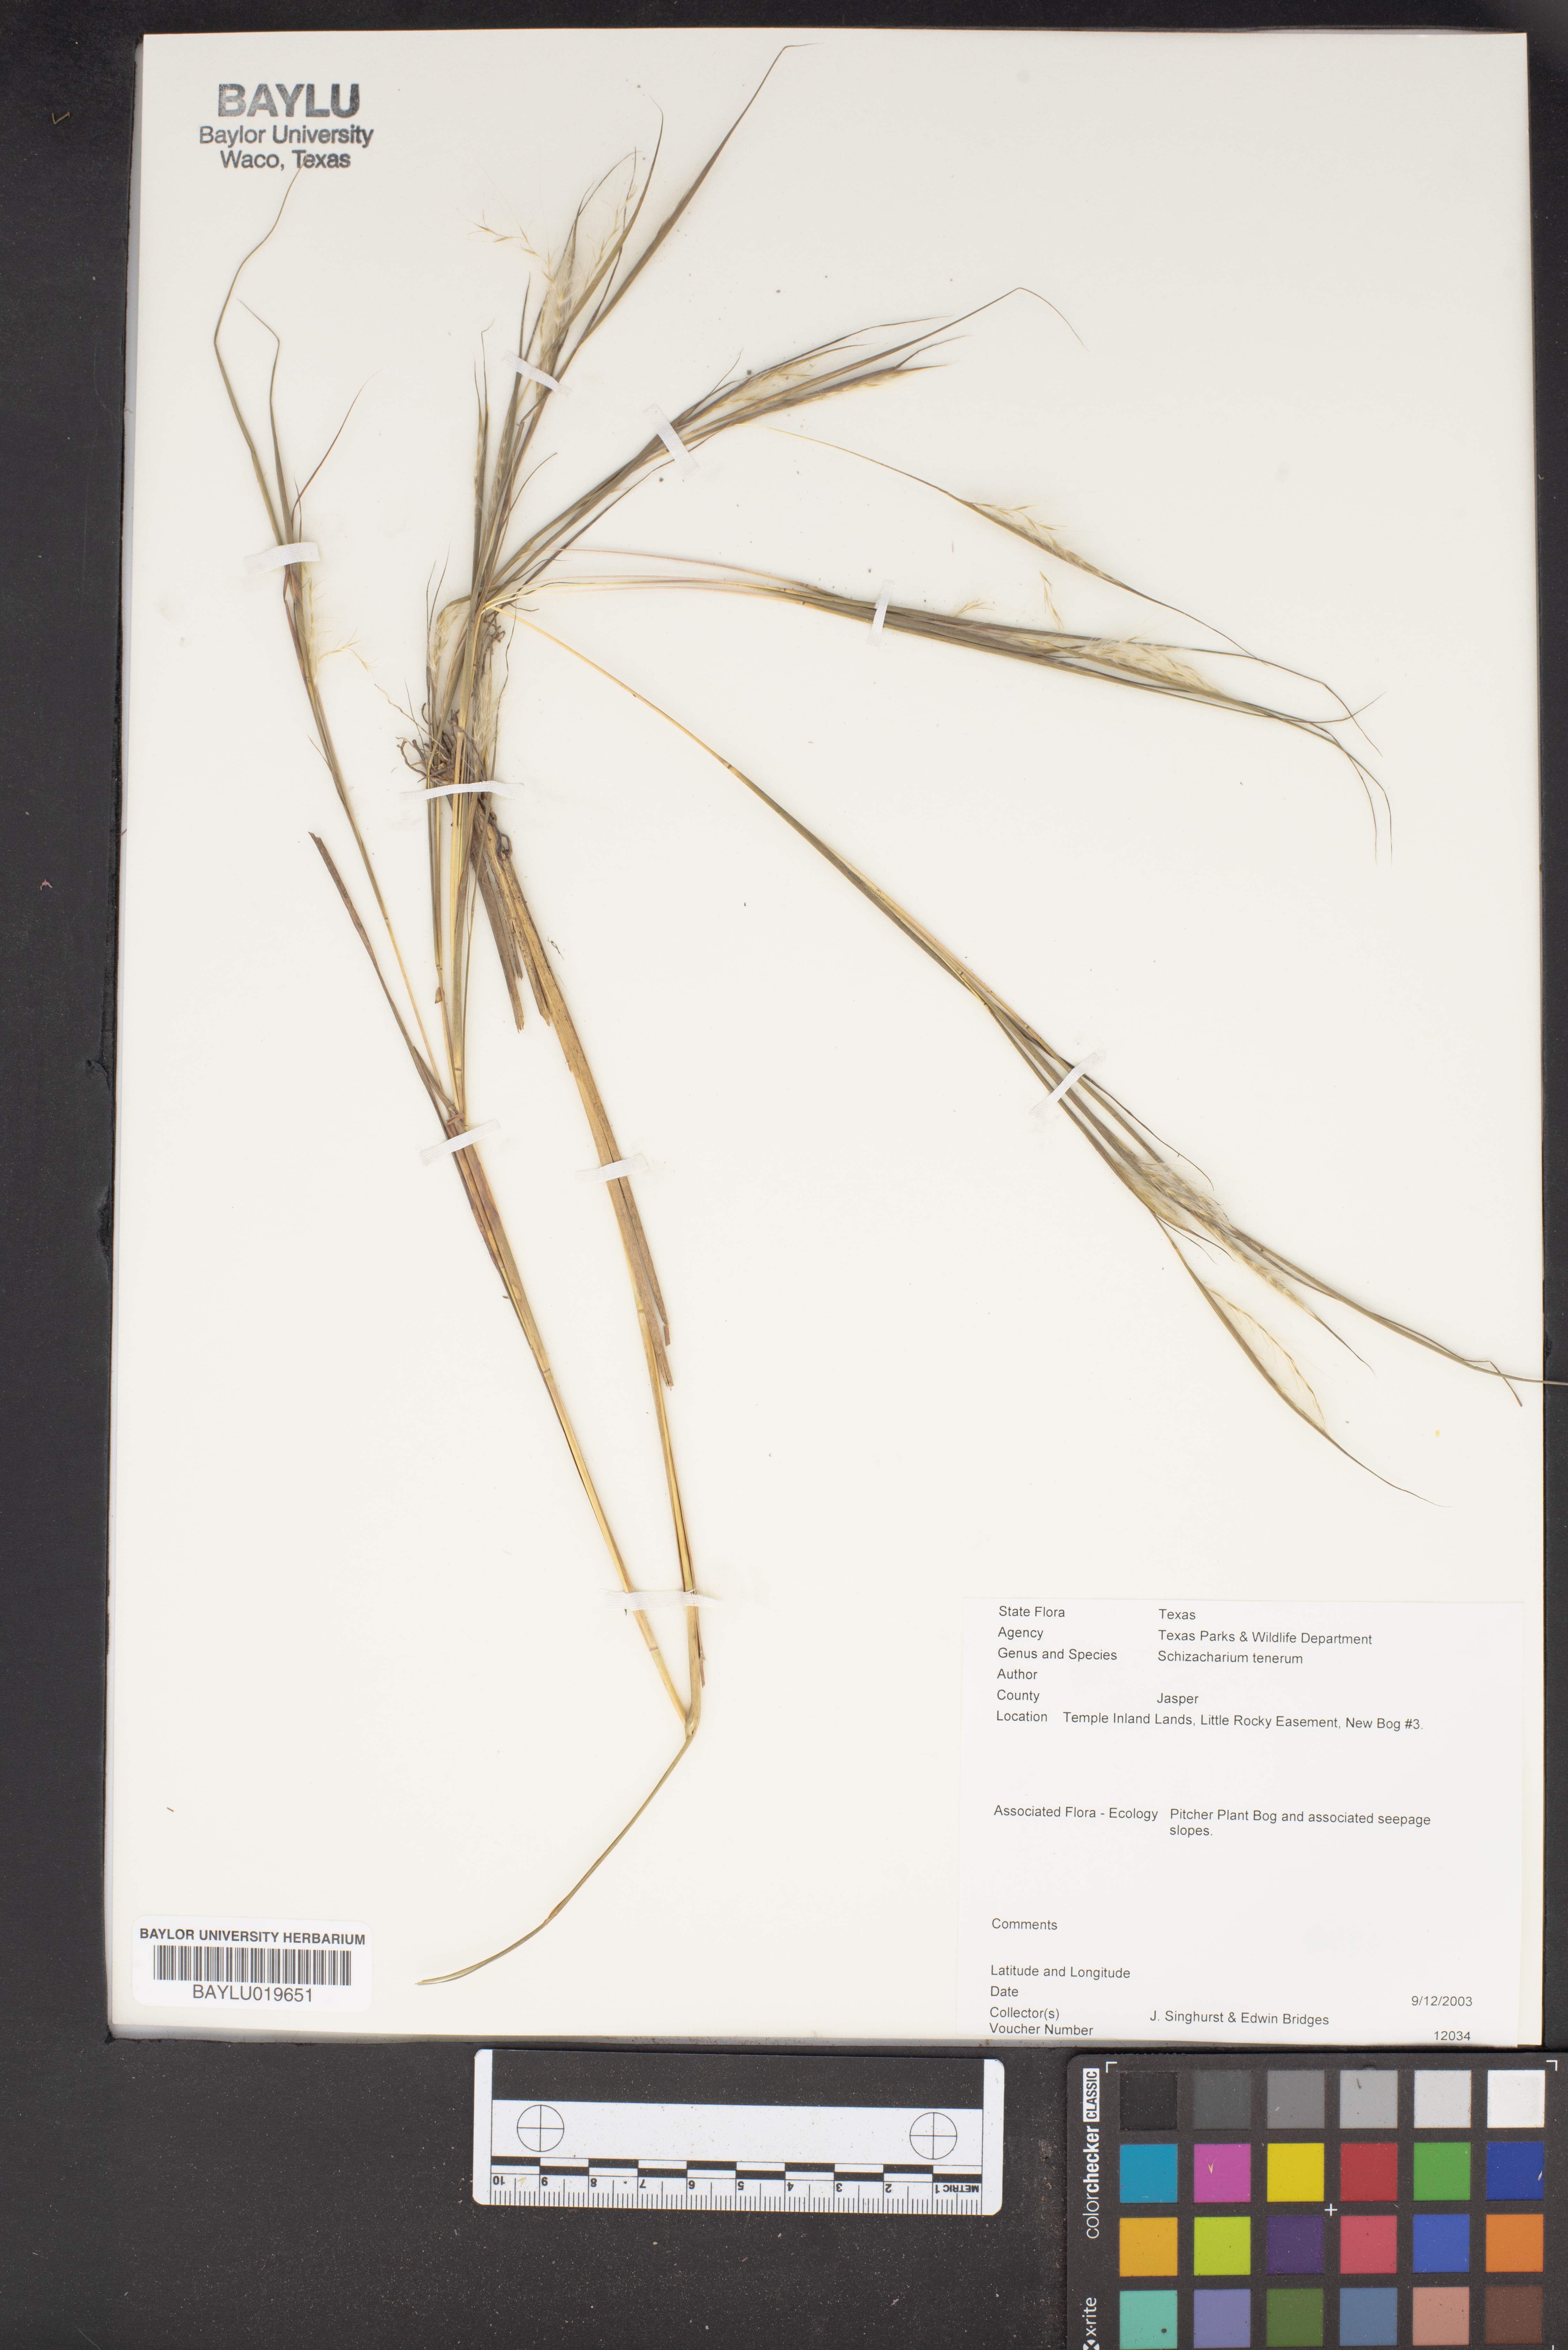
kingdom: Plantae
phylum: Tracheophyta
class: Liliopsida
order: Poales
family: Poaceae
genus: Andropogon
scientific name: Andropogon tener
